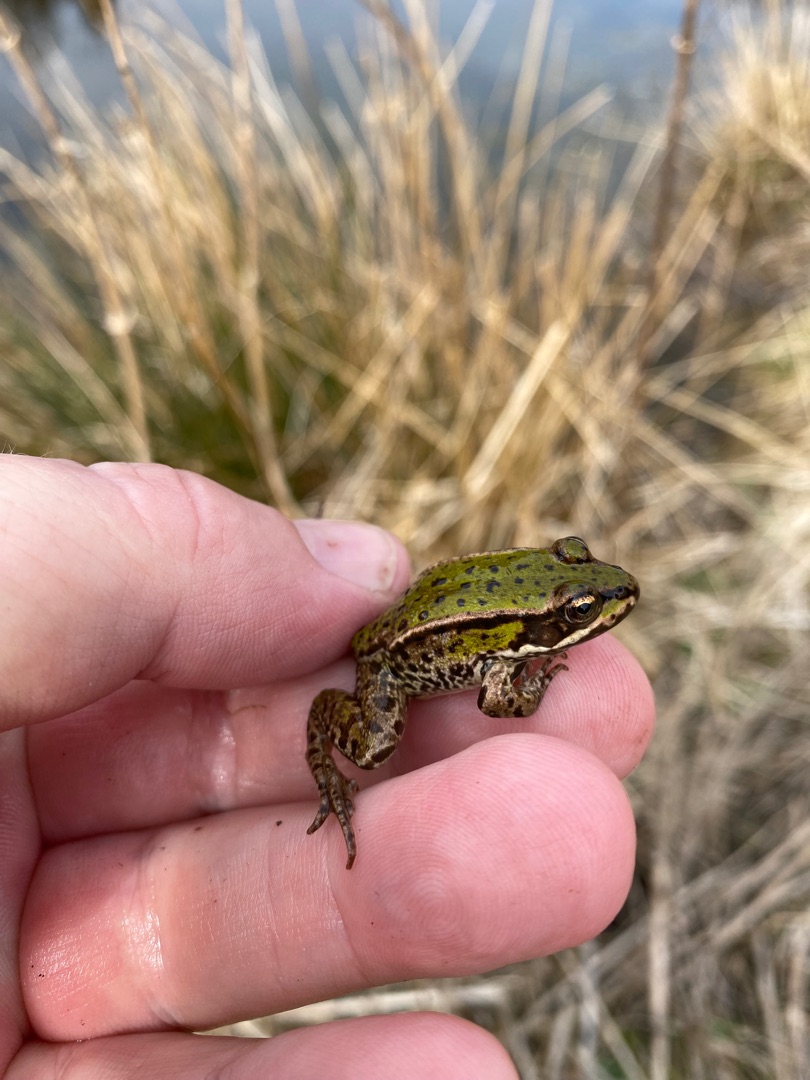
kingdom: Animalia
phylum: Chordata
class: Amphibia
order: Anura
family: Ranidae
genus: Pelophylax
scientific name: Pelophylax lessonae
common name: Grøn frø
